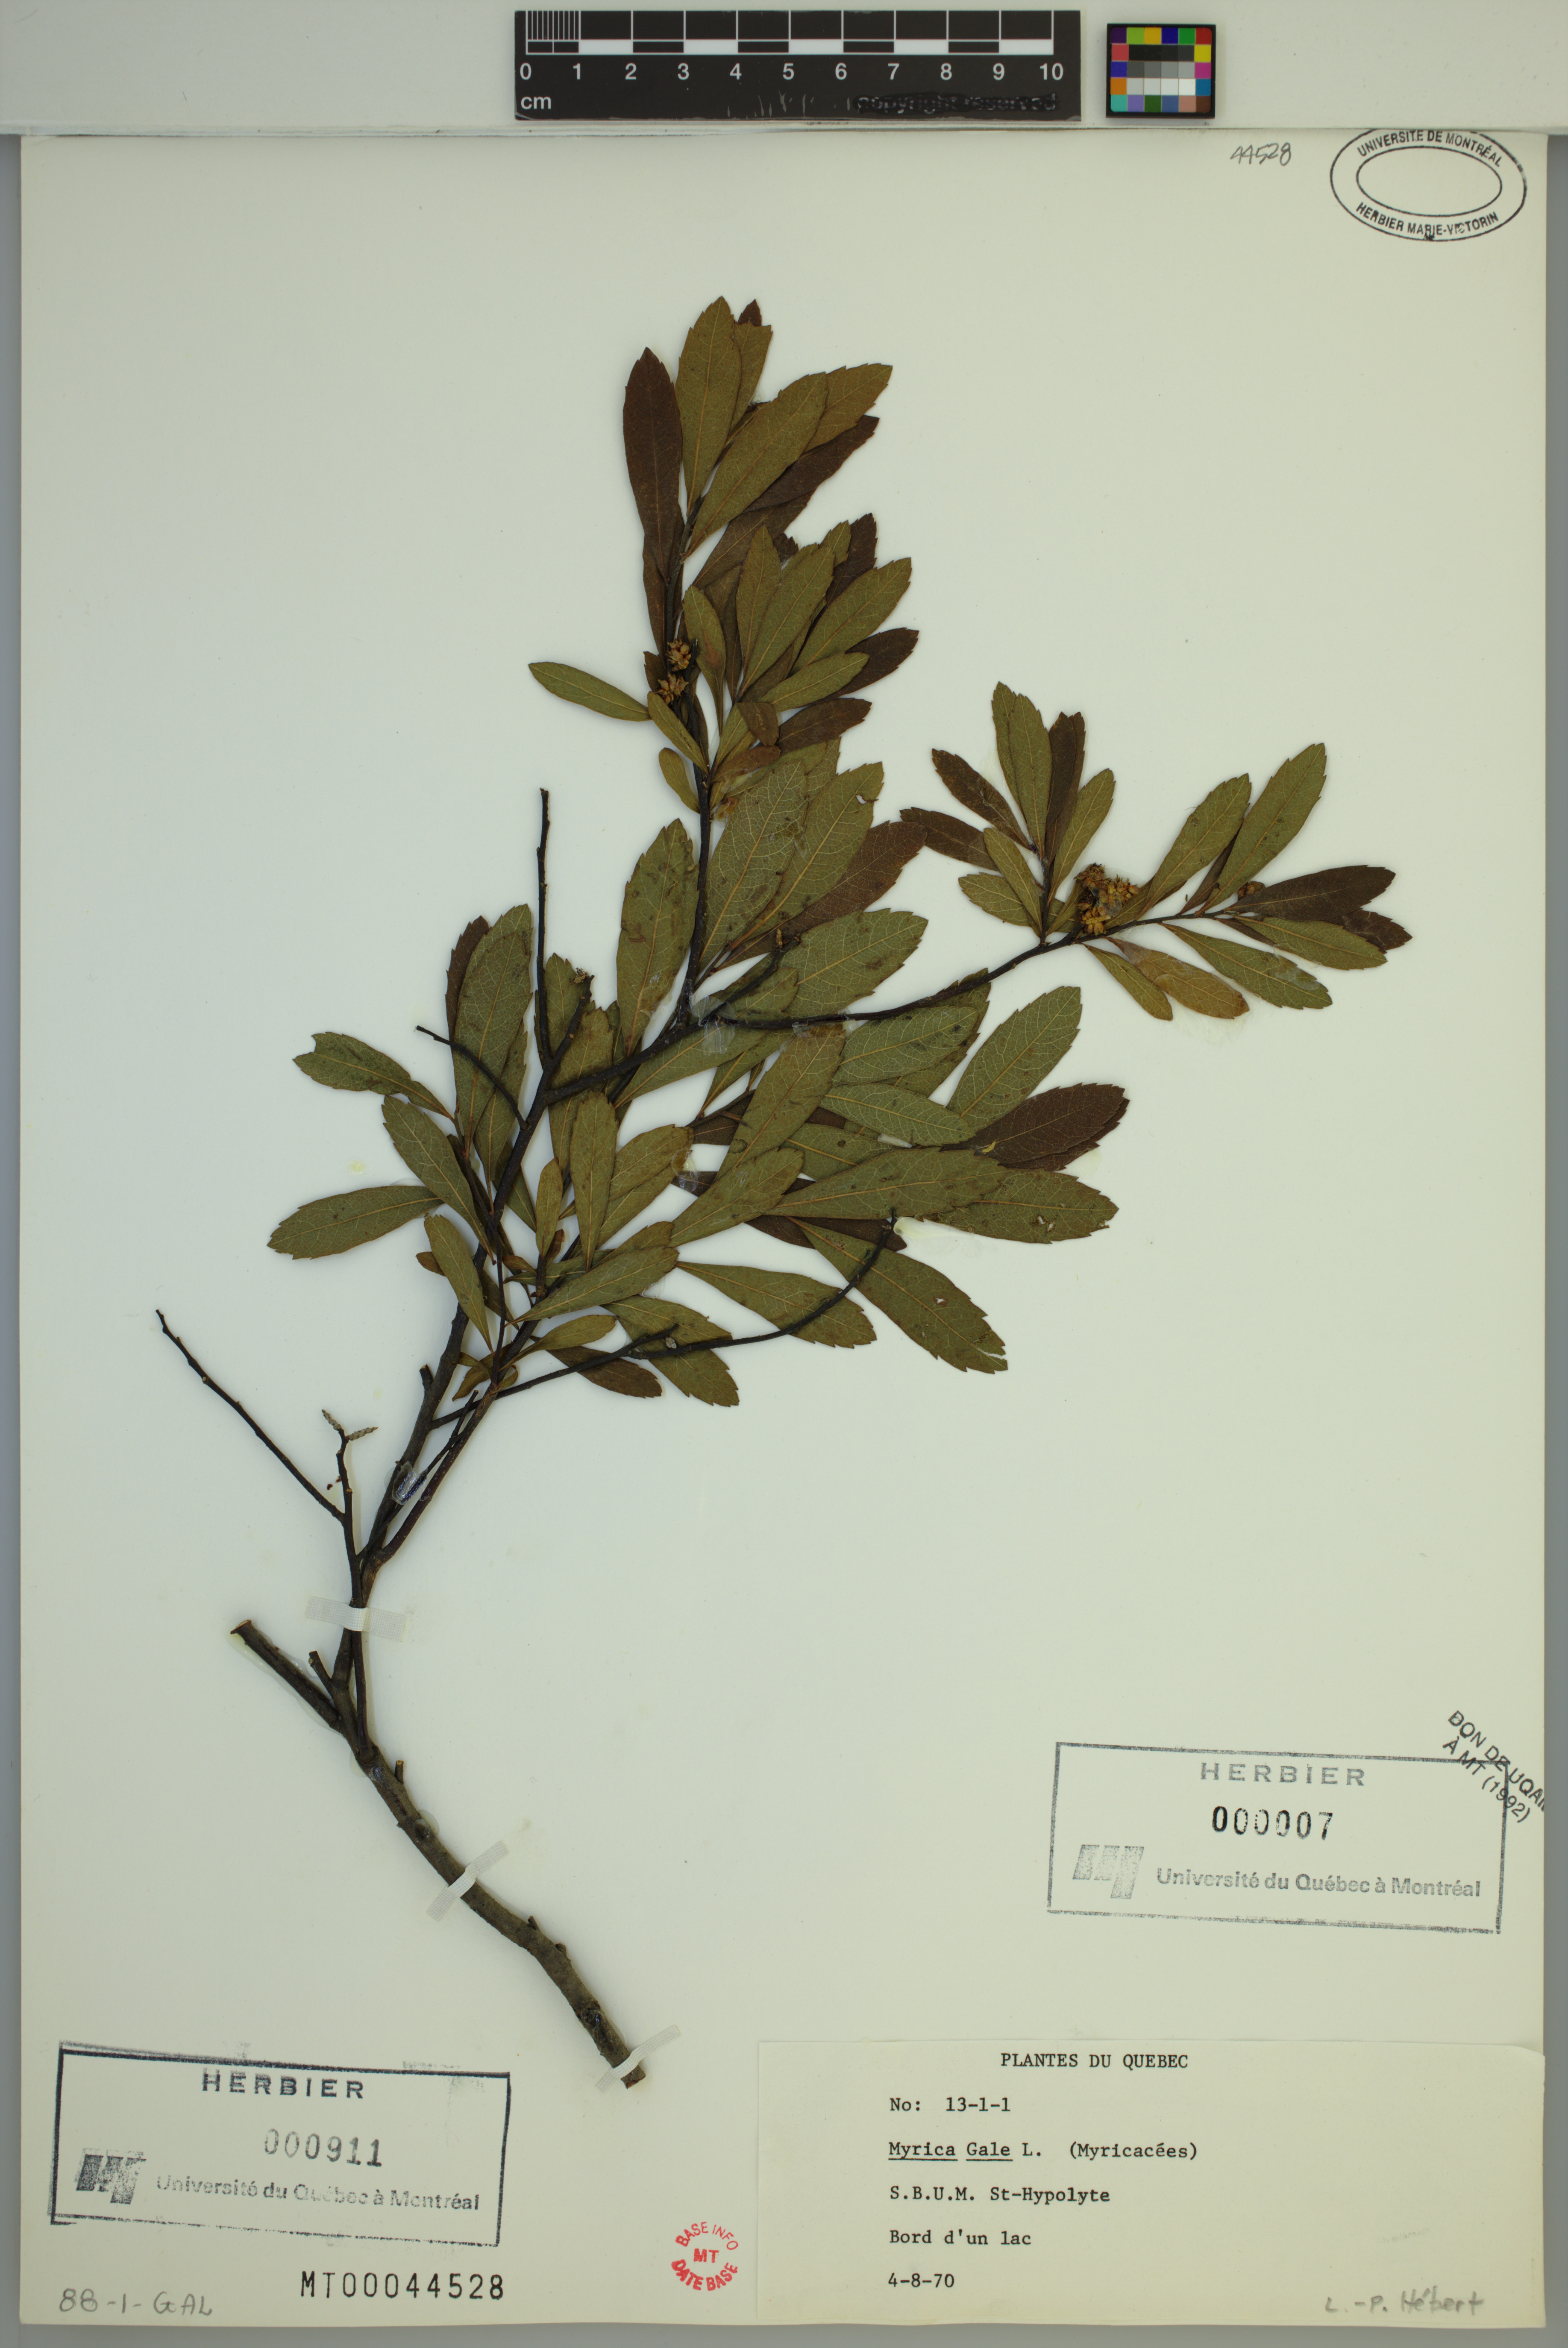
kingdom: Plantae
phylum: Tracheophyta
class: Magnoliopsida
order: Fagales
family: Myricaceae
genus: Myrica
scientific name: Myrica gale
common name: Sweet gale
